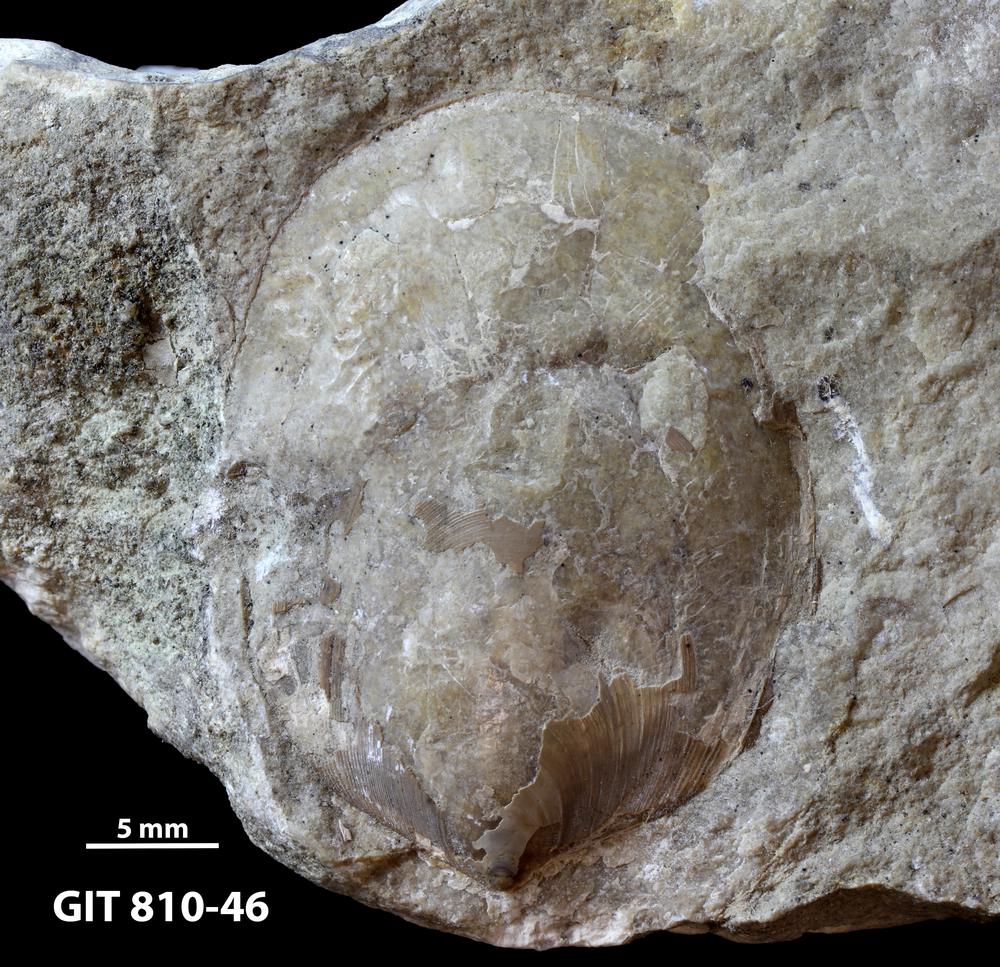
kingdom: Animalia
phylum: Brachiopoda
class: Lingulata
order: Lingulida
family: Pseudolingulidae
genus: Pseudolingula
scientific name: Pseudolingula Crania quadrata
